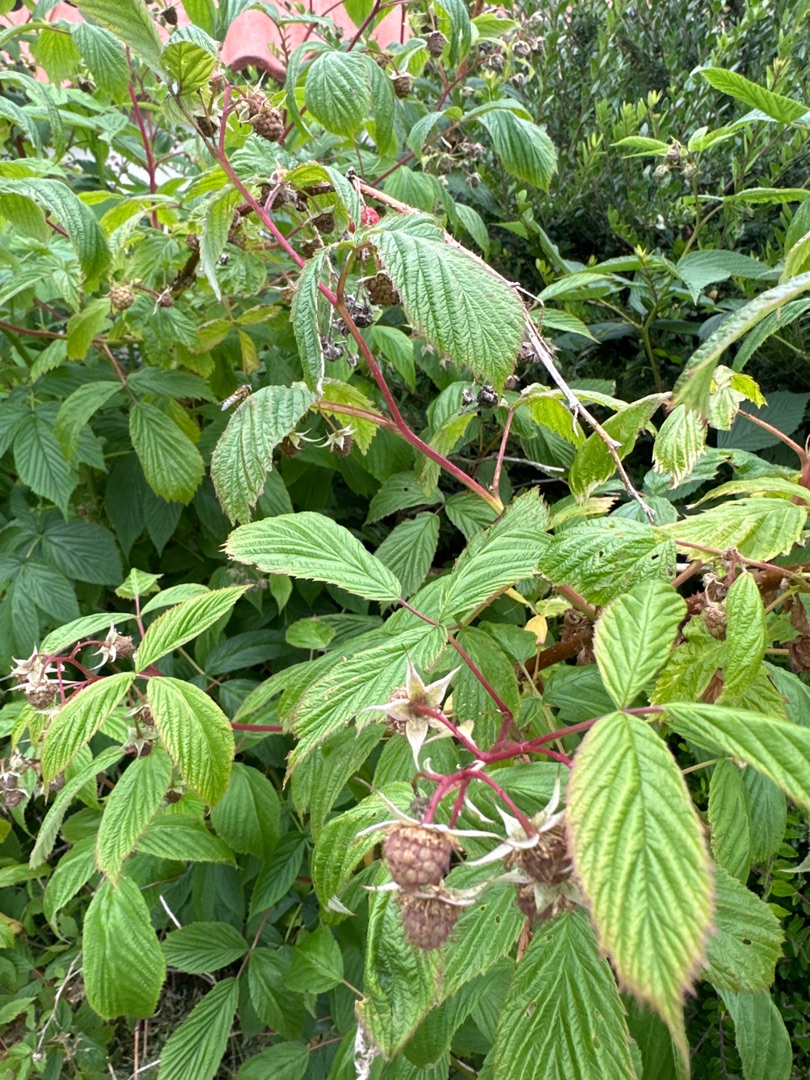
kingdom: Plantae
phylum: Tracheophyta
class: Magnoliopsida
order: Rosales
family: Rosaceae
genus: Rubus
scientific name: Rubus idaeus
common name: Hindbær
